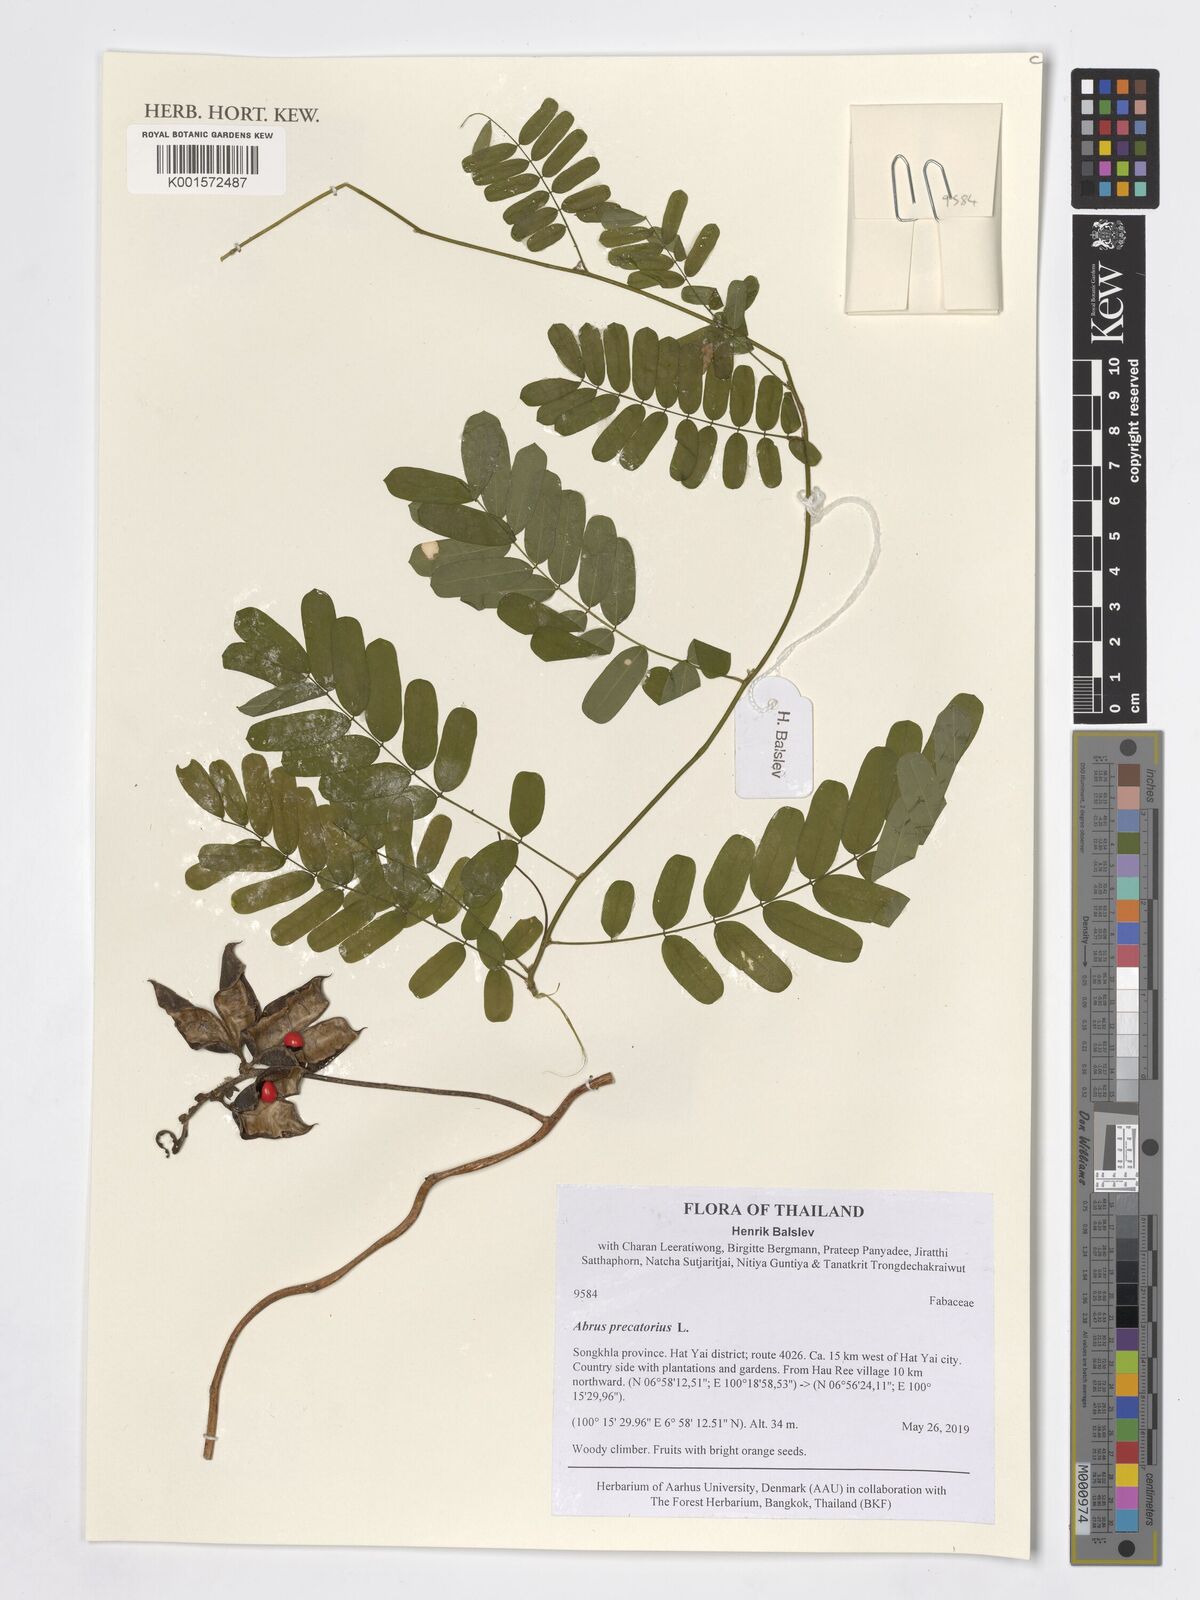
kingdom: Plantae
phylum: Tracheophyta
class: Magnoliopsida
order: Fabales
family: Fabaceae
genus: Abrus
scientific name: Abrus precatorius
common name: Rosarypea
